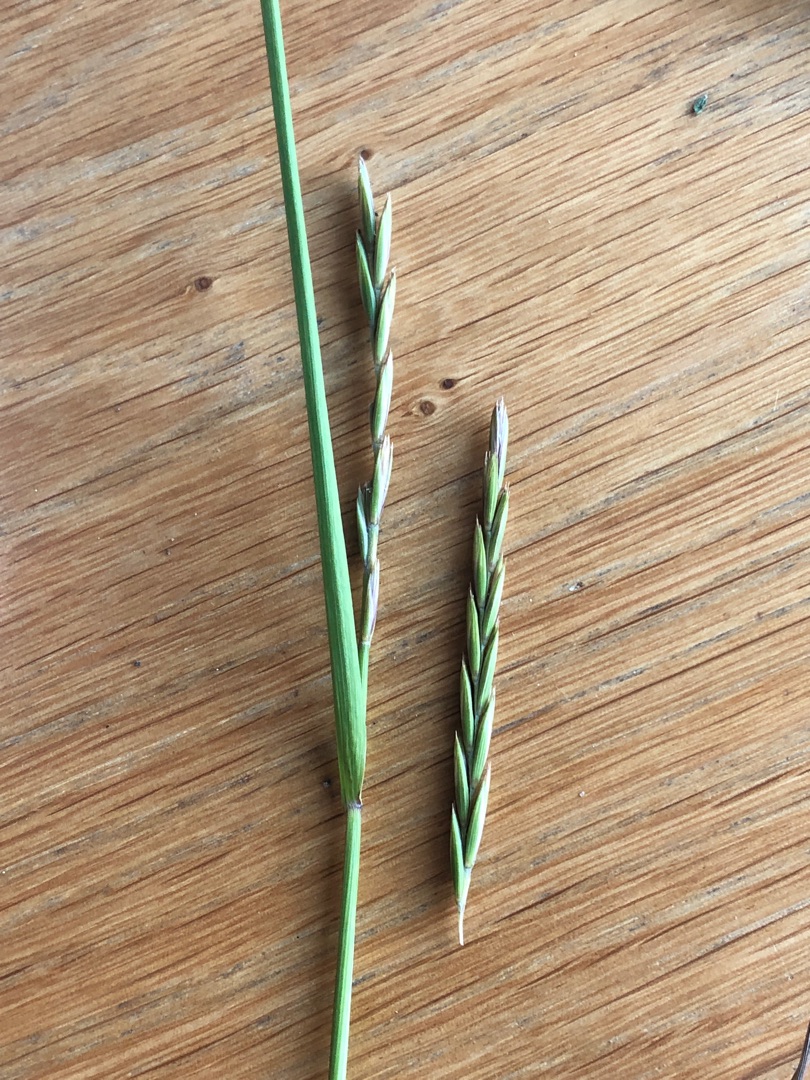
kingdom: Plantae
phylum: Tracheophyta
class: Liliopsida
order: Poales
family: Poaceae
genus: Elymus
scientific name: Elymus repens
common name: Almindelig kvik
